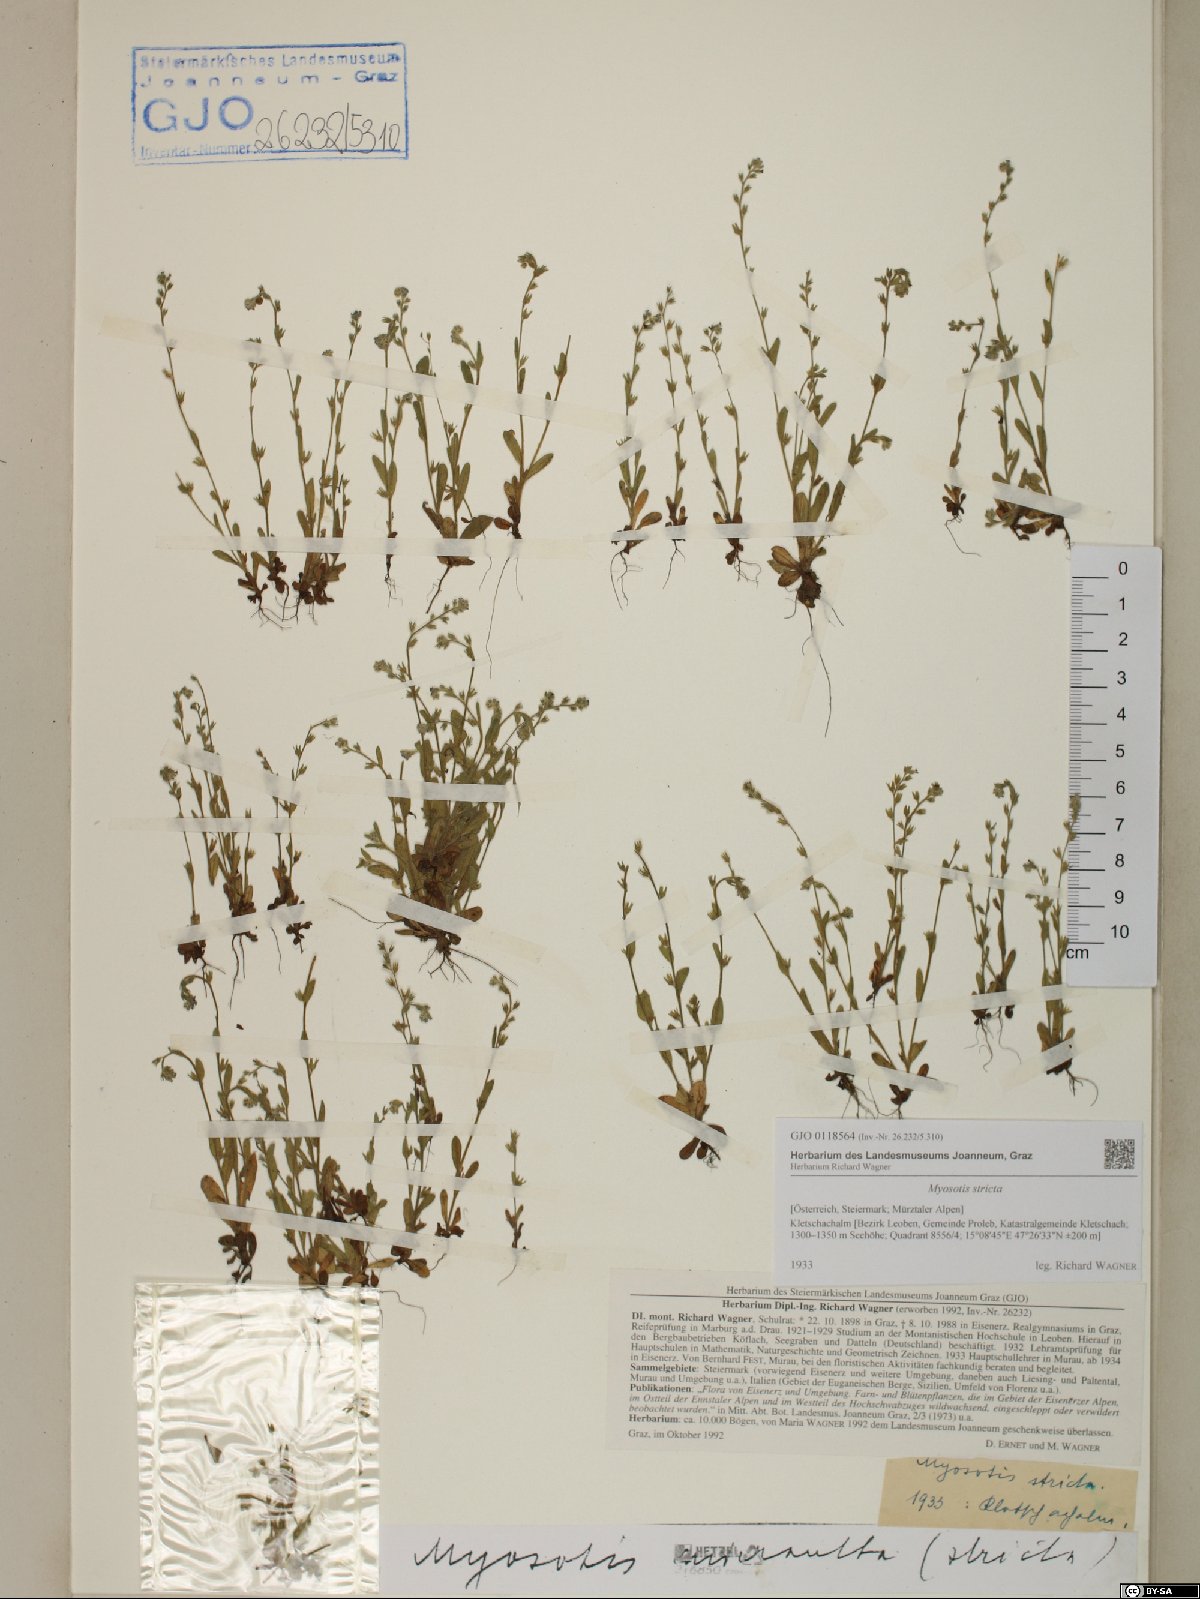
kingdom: Plantae
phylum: Tracheophyta
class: Magnoliopsida
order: Boraginales
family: Boraginaceae
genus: Myosotis
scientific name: Myosotis stricta
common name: Strict forget-me-not
